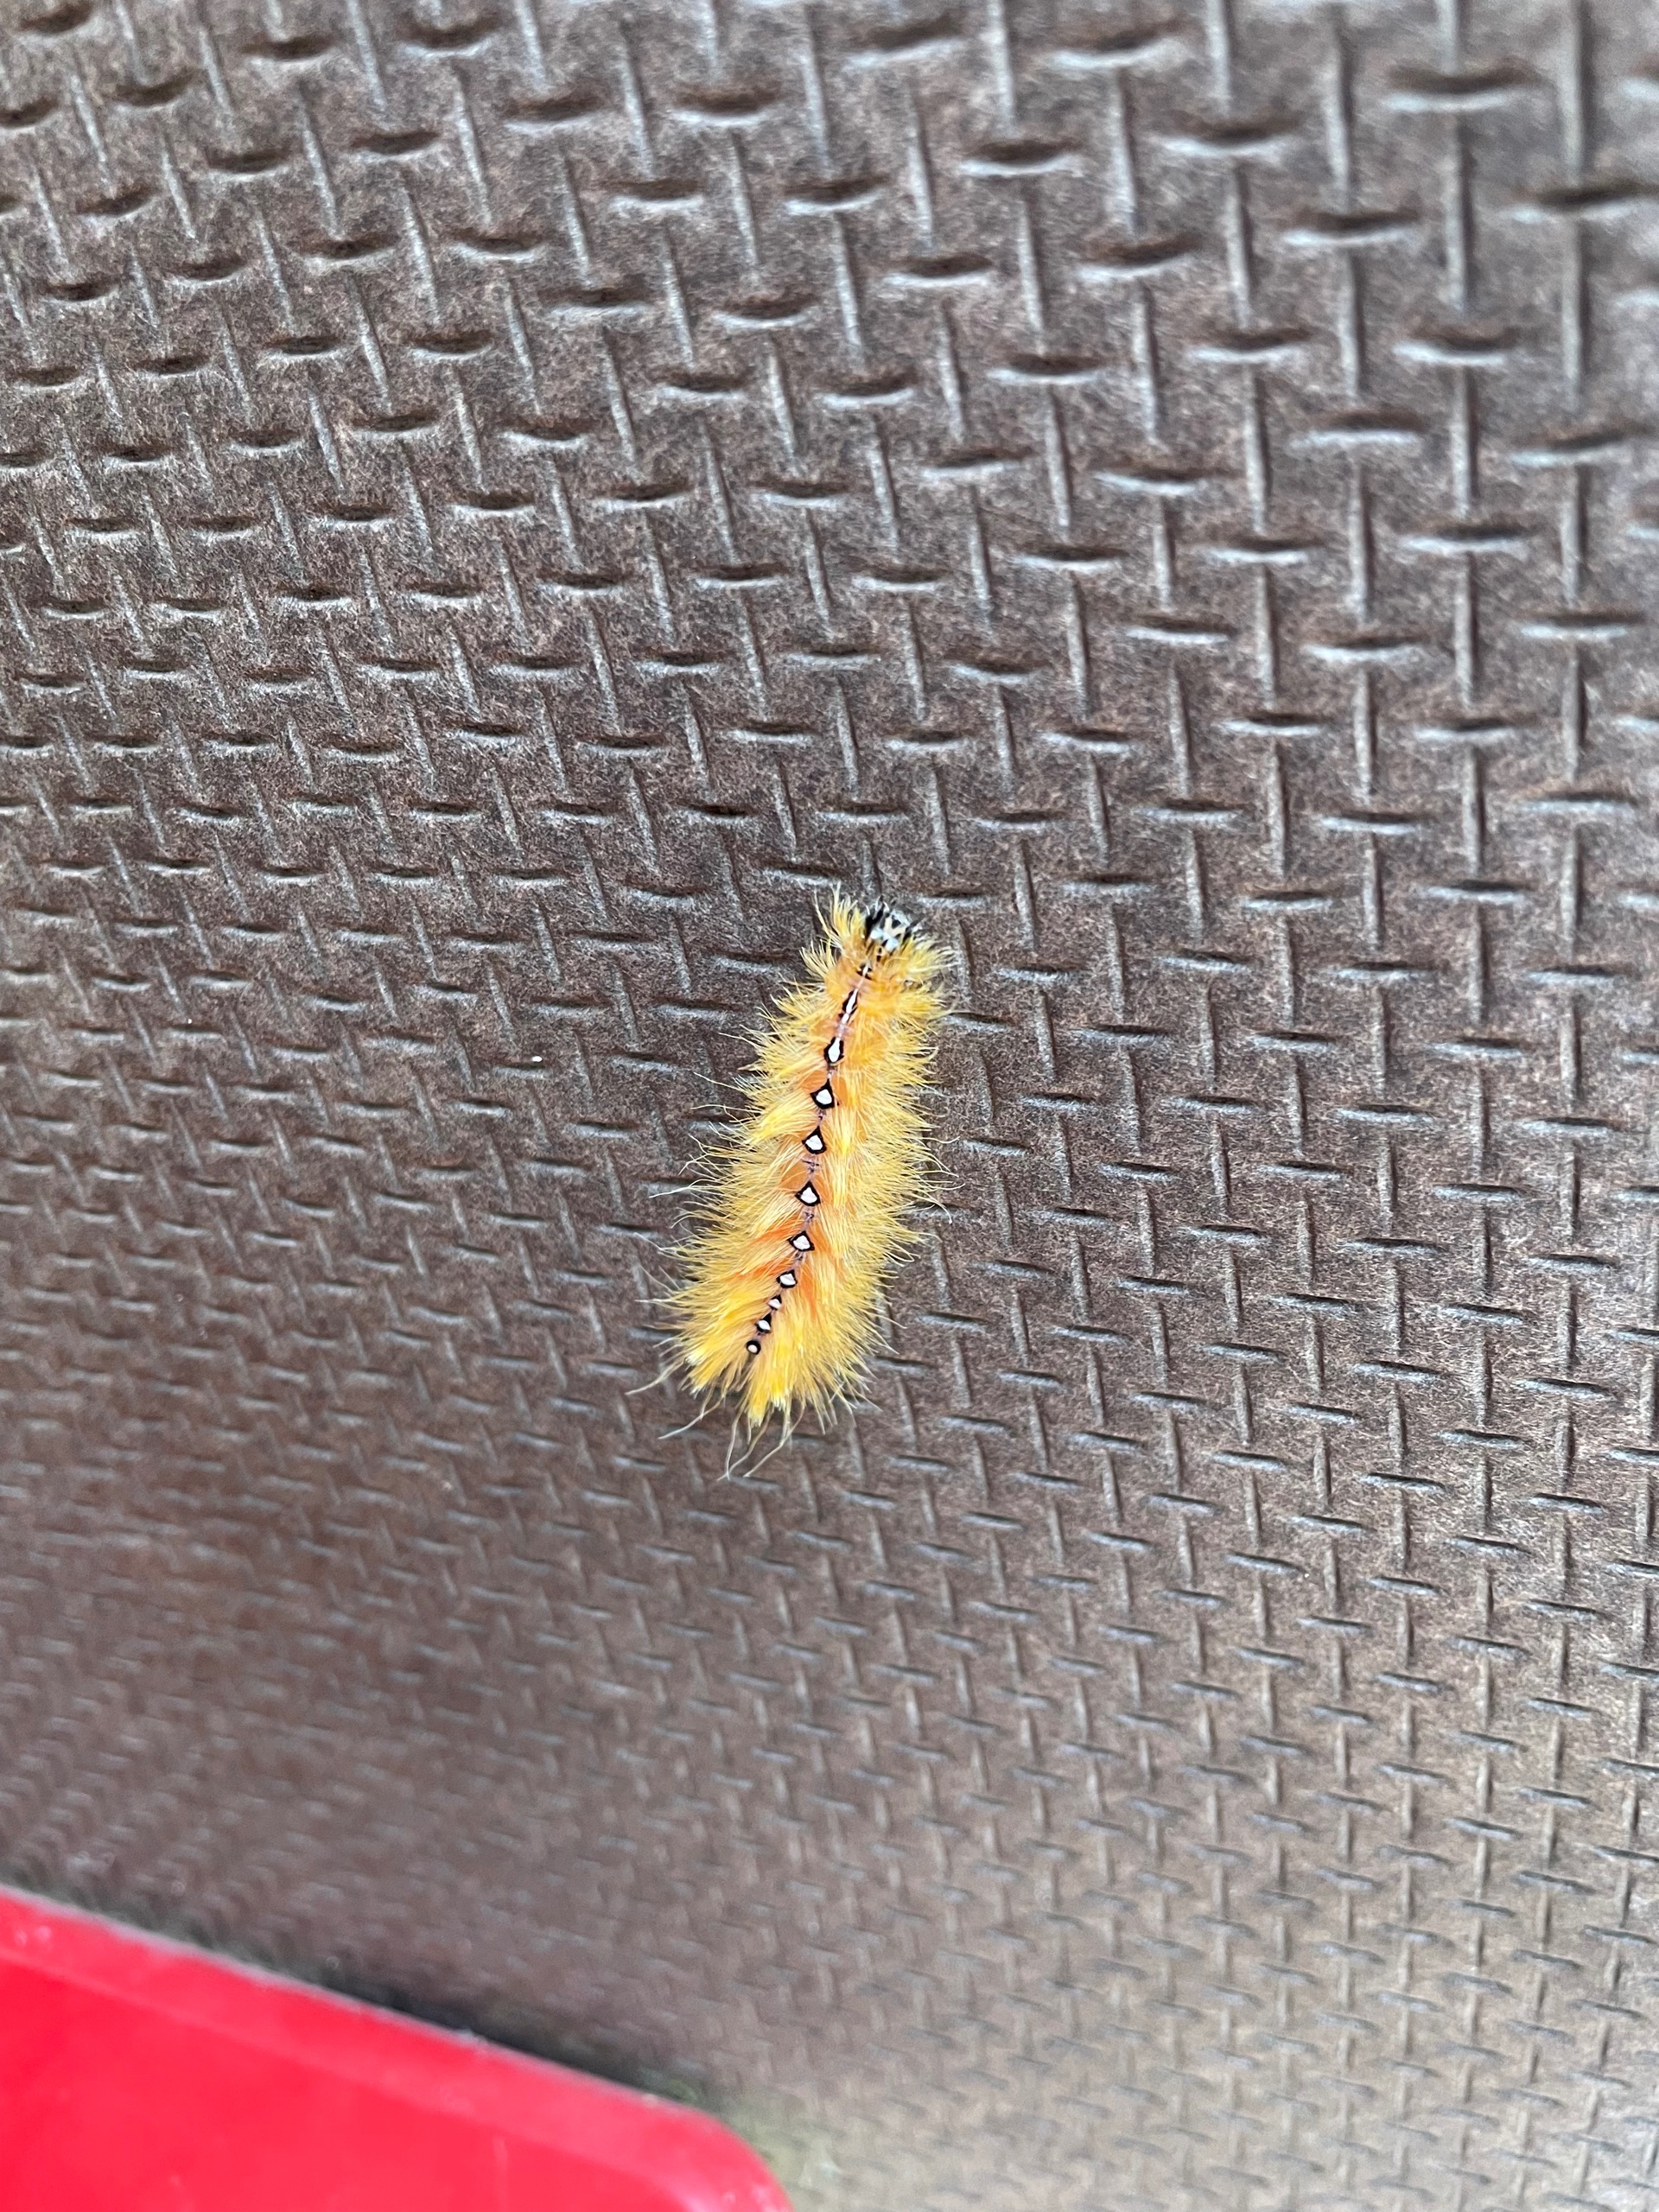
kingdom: Animalia
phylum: Arthropoda
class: Insecta
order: Lepidoptera
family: Noctuidae
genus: Acronicta
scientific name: Acronicta aceris
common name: Ahornugle
